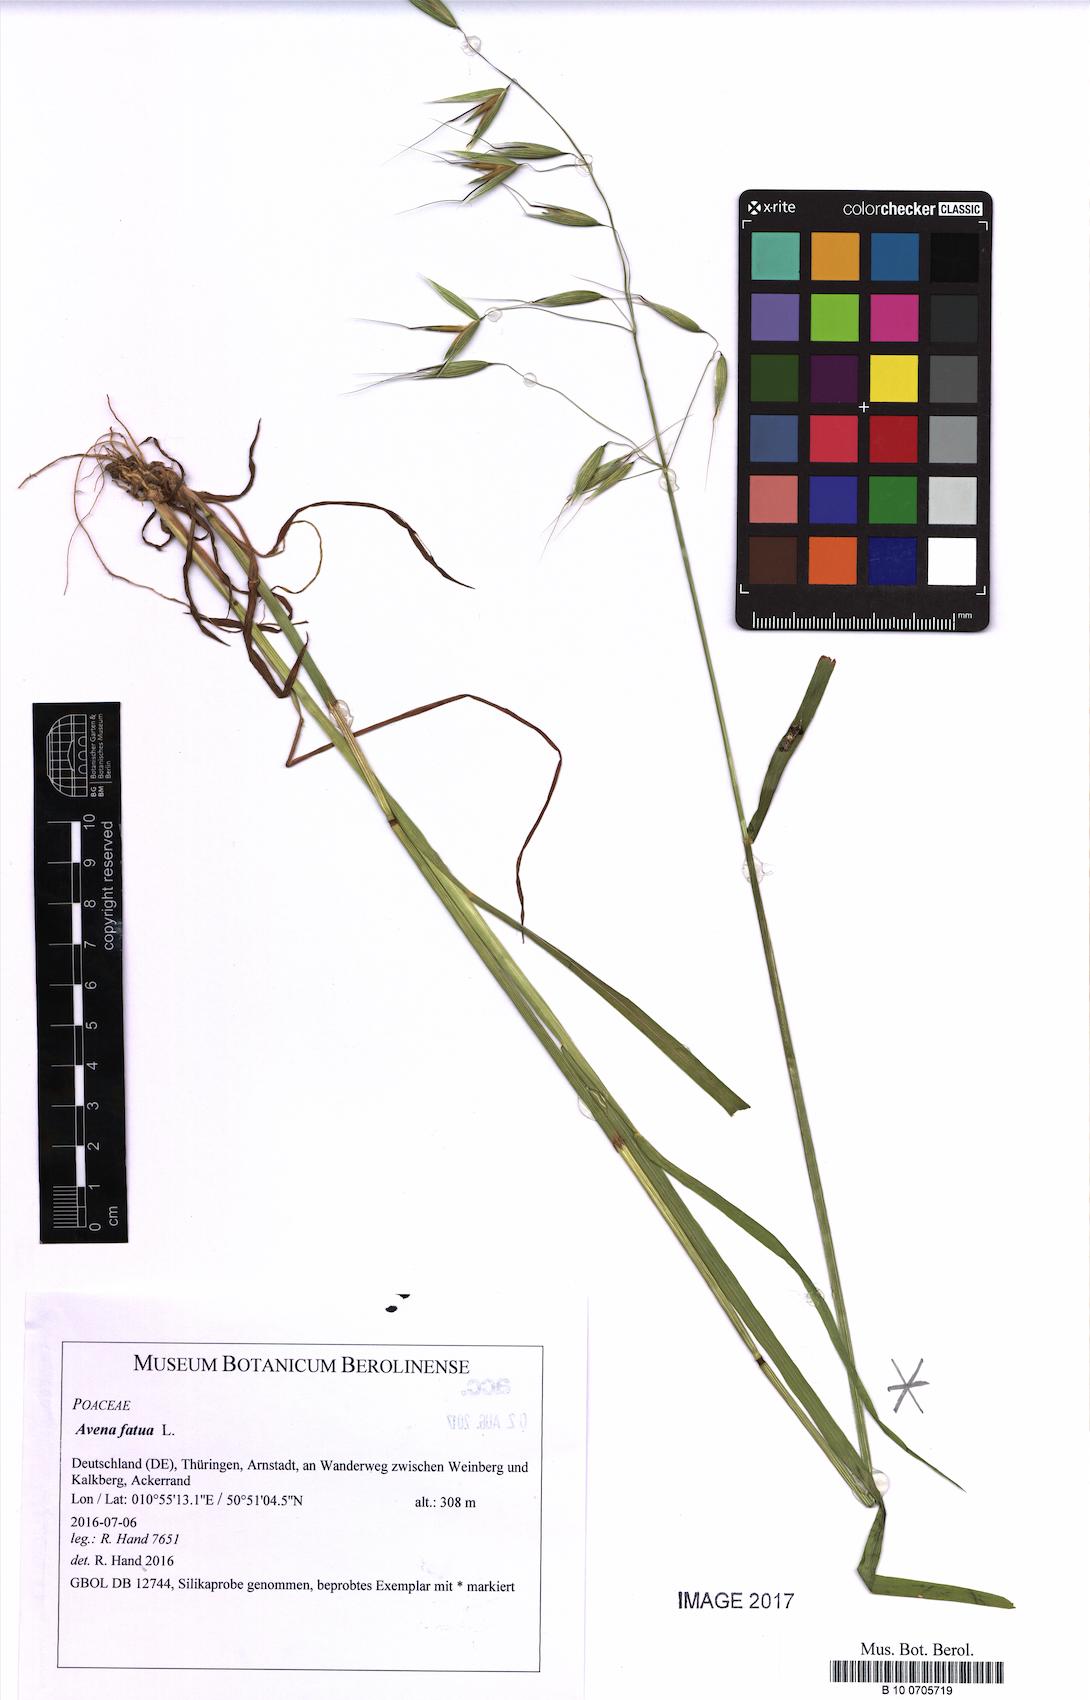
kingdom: Plantae
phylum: Tracheophyta
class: Liliopsida
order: Poales
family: Poaceae
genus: Avena
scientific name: Avena fatua
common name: Wild oat
